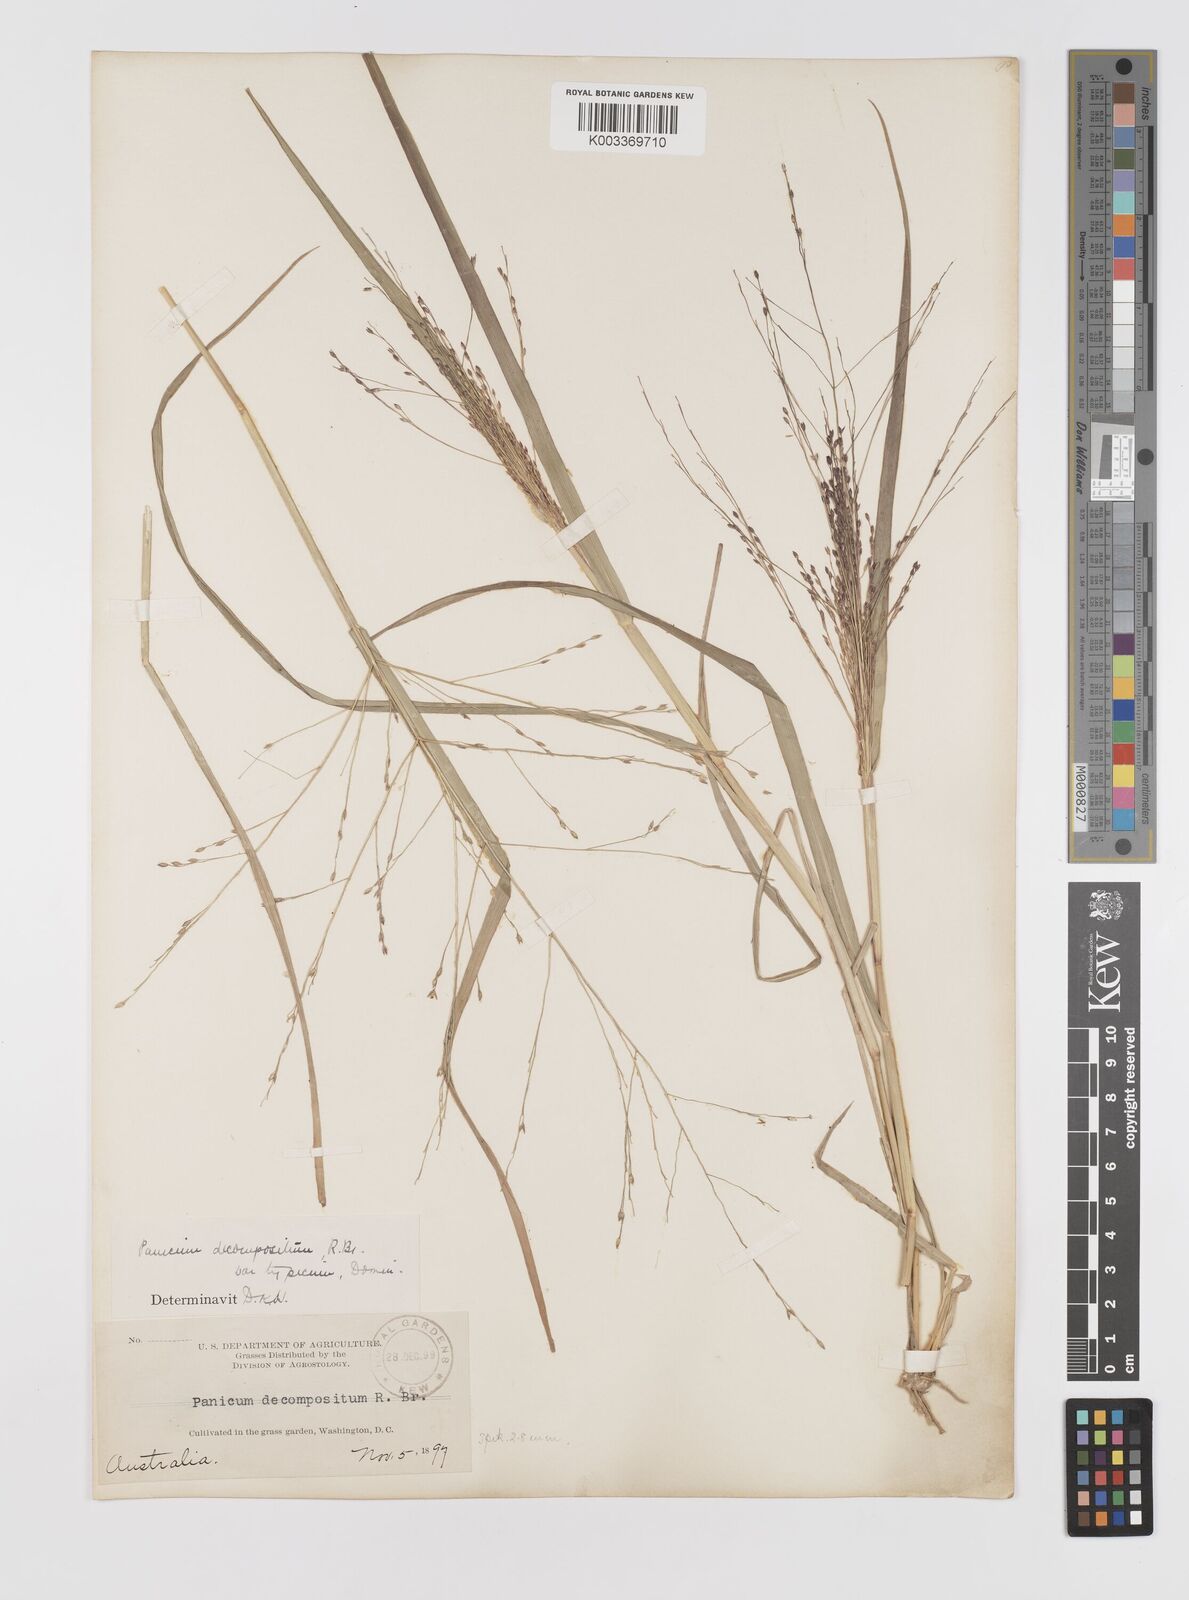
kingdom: Plantae
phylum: Tracheophyta
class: Liliopsida
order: Poales
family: Poaceae
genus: Panicum
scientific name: Panicum decompositum
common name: Australian millet
